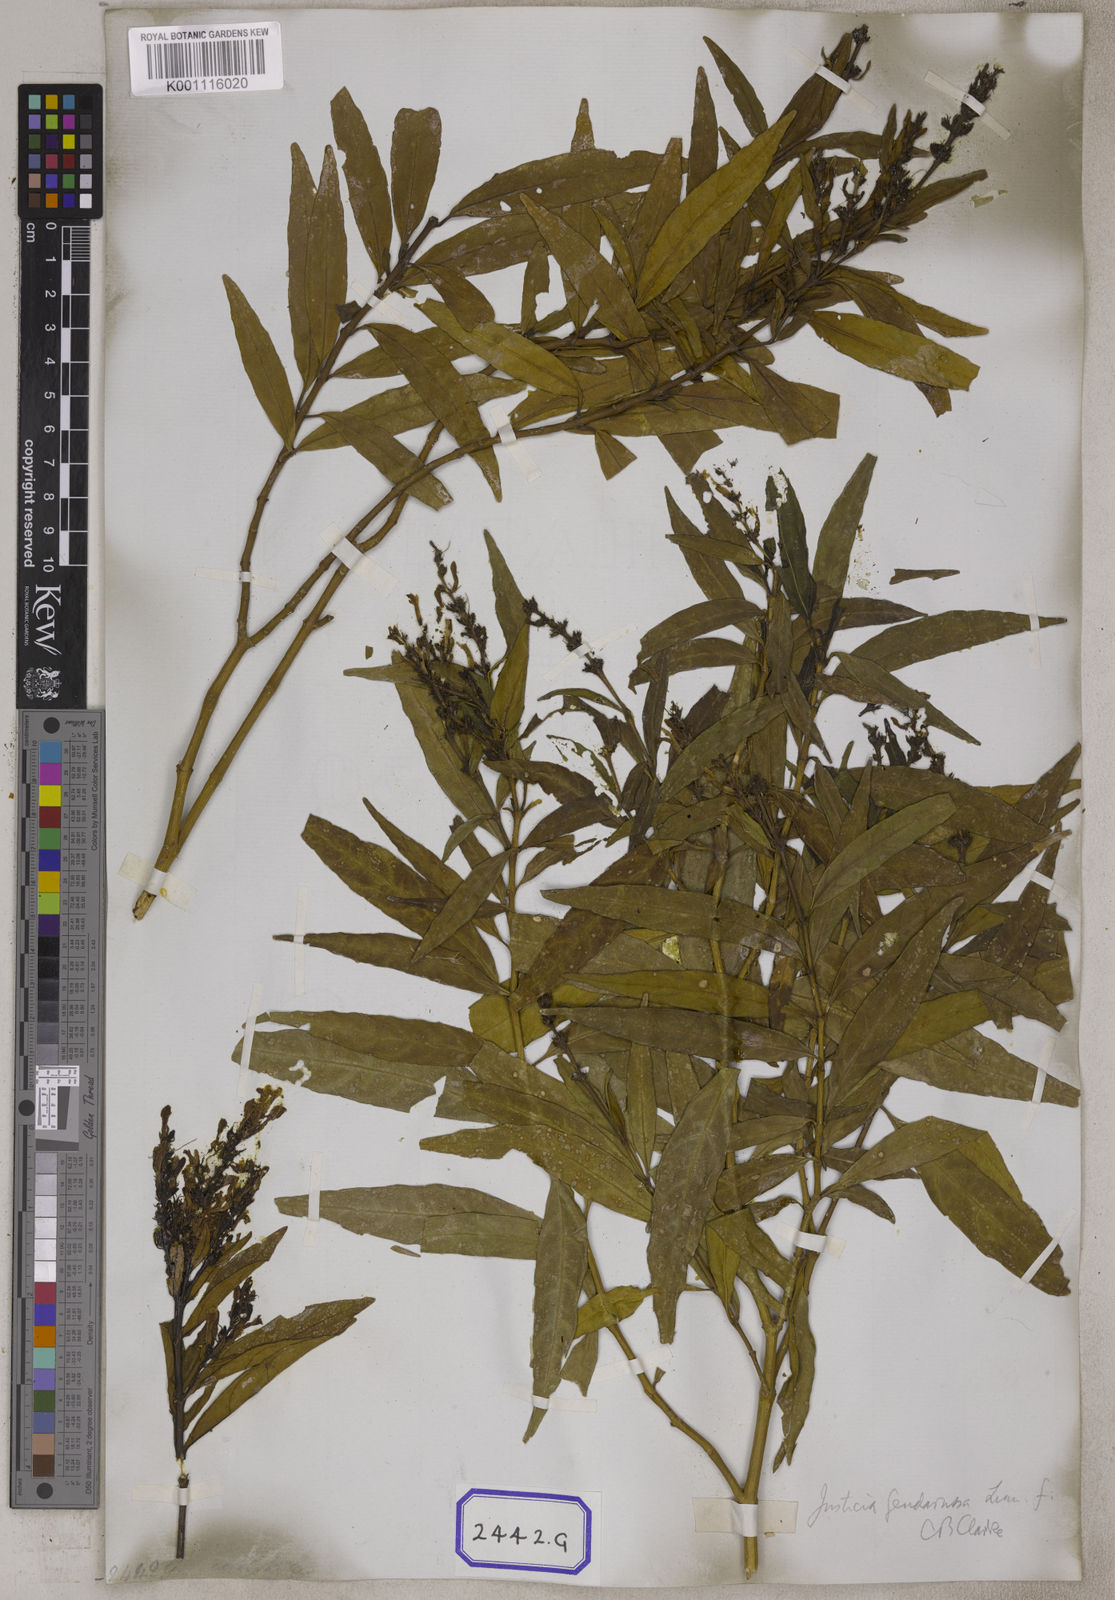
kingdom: Plantae
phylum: Tracheophyta
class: Magnoliopsida
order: Lamiales
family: Acanthaceae
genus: Justicia
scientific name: Justicia
